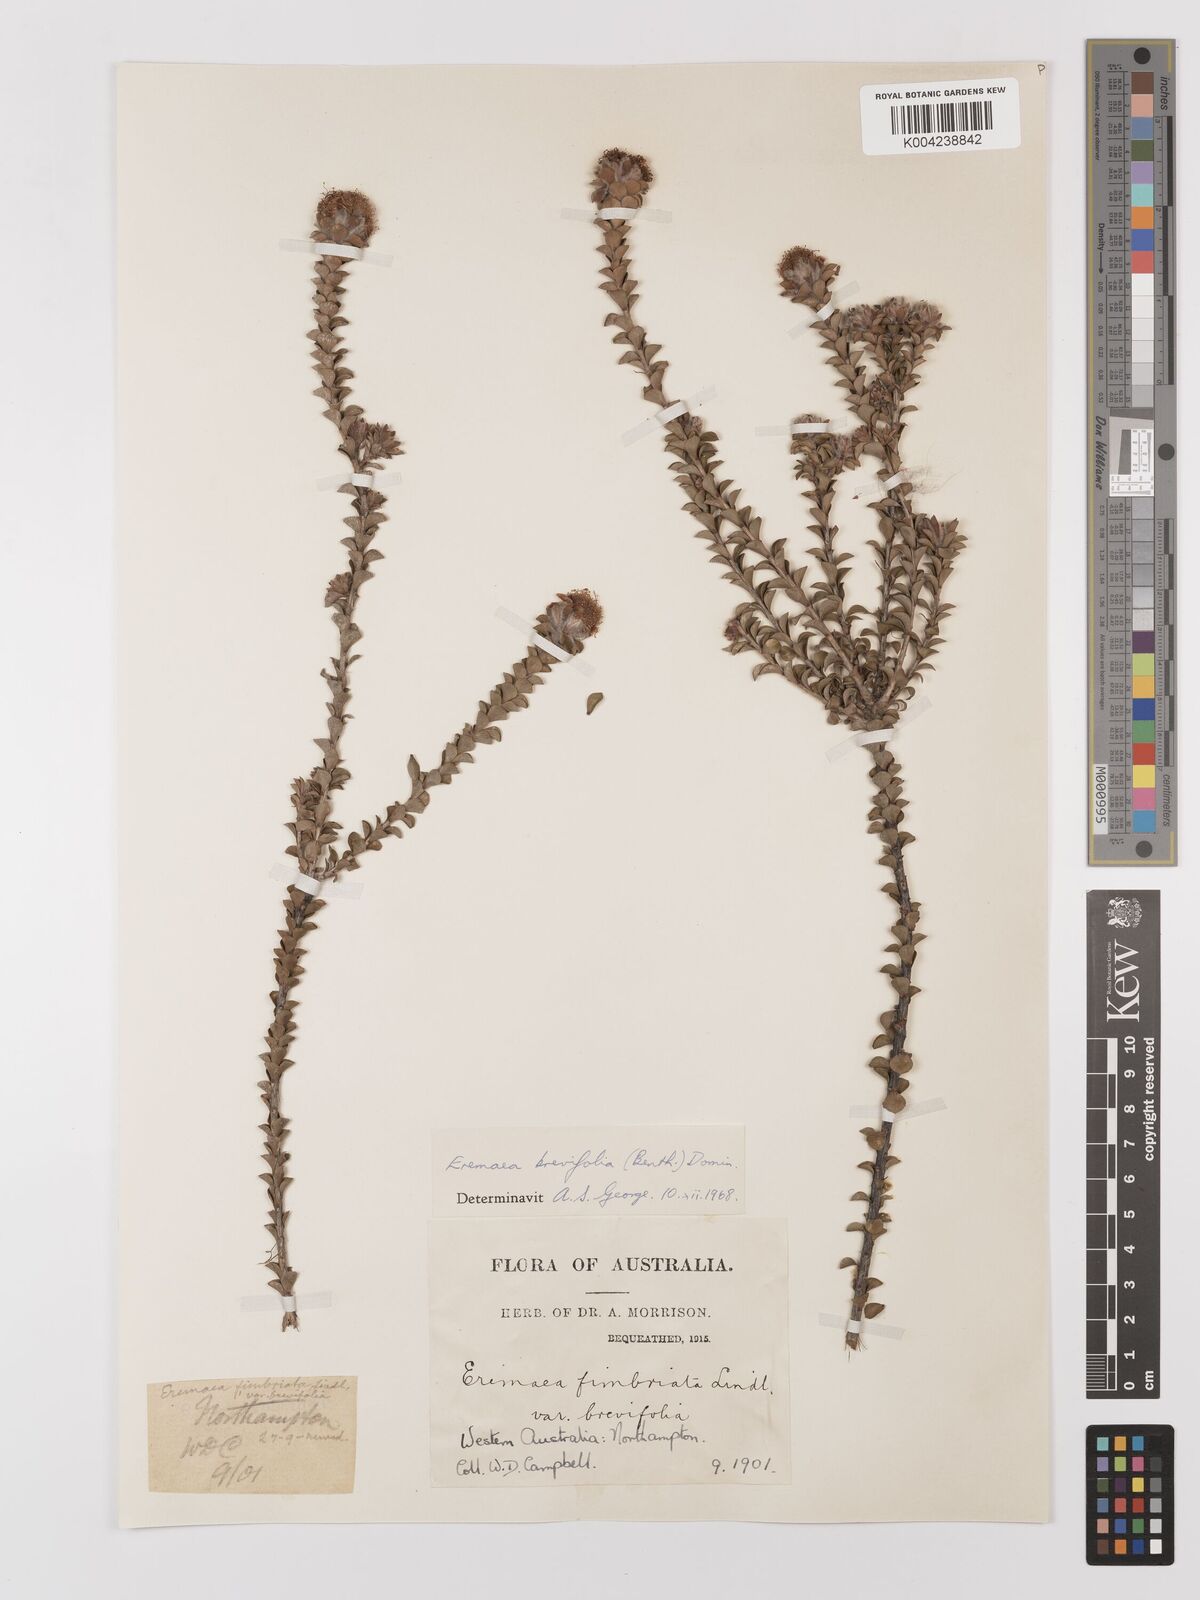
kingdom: Plantae
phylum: Tracheophyta
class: Magnoliopsida
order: Myrtales
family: Myrtaceae
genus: Melaleuca
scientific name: Melaleuca curtifolia
